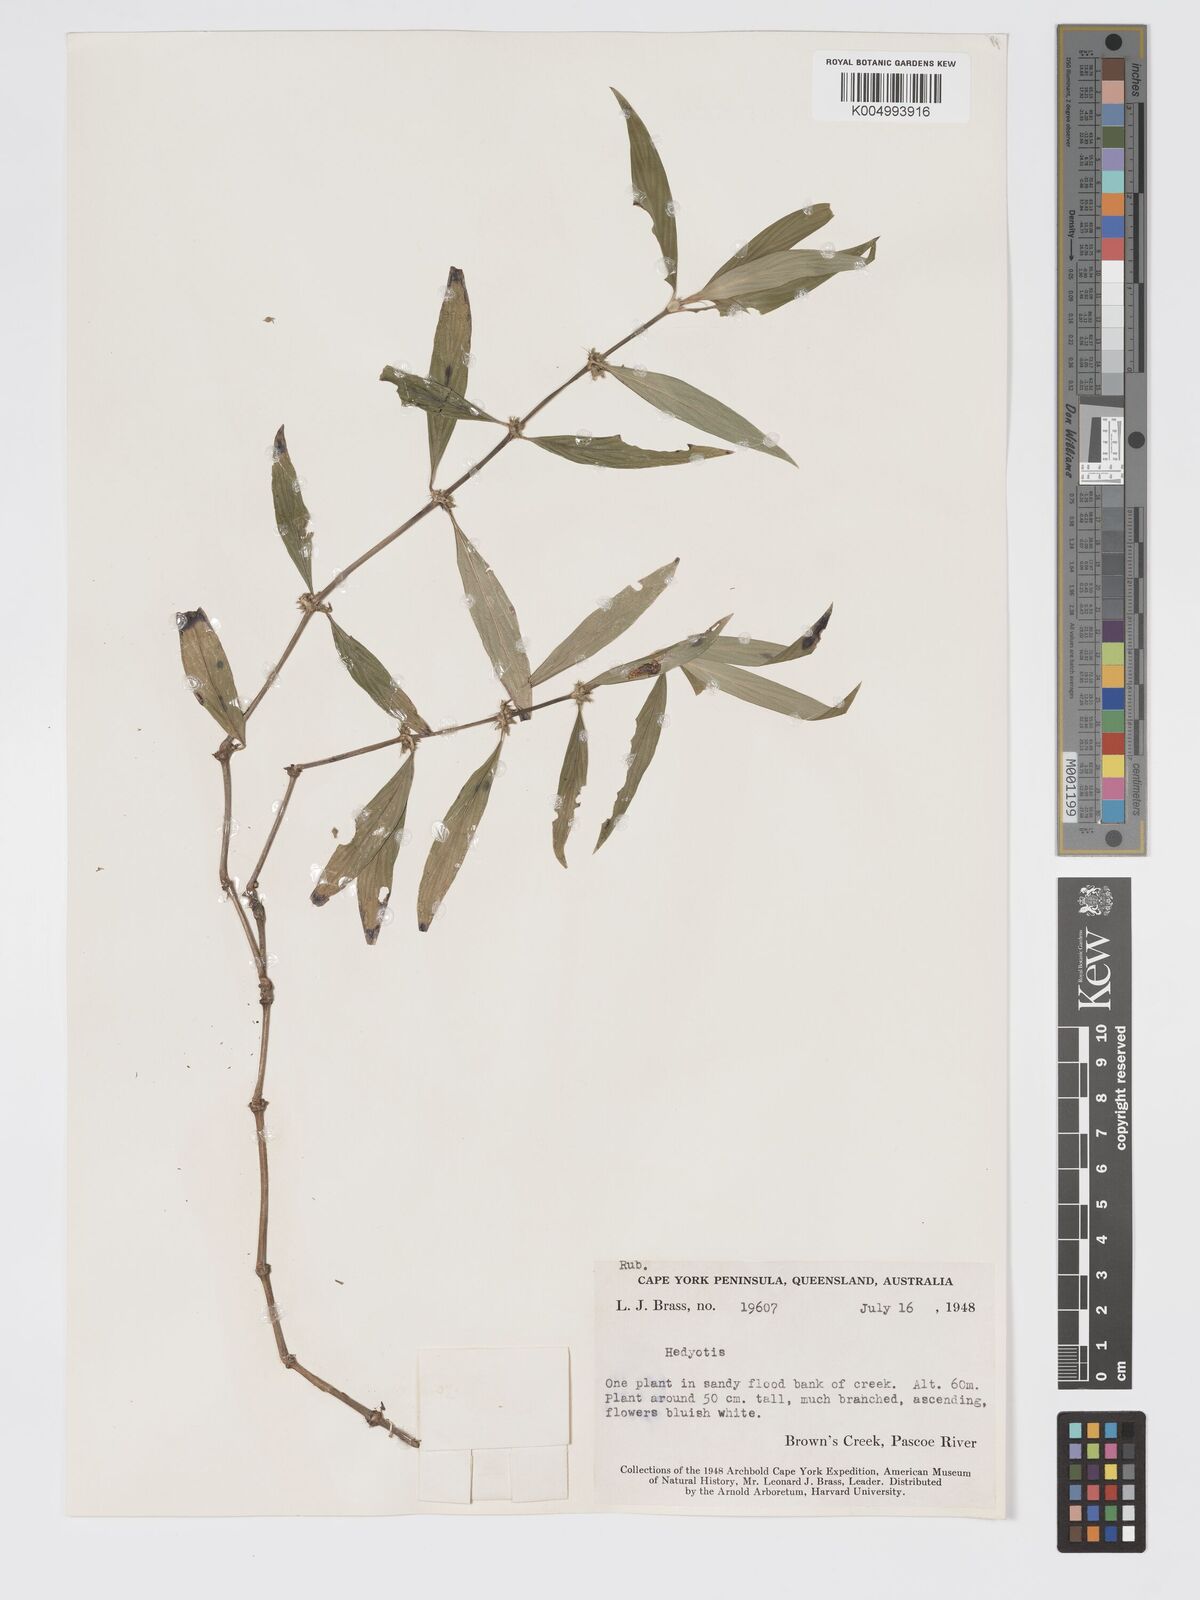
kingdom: Plantae
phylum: Tracheophyta
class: Magnoliopsida
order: Gentianales
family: Rubiaceae
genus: Exallage
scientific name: Exallage lapeyrousei
